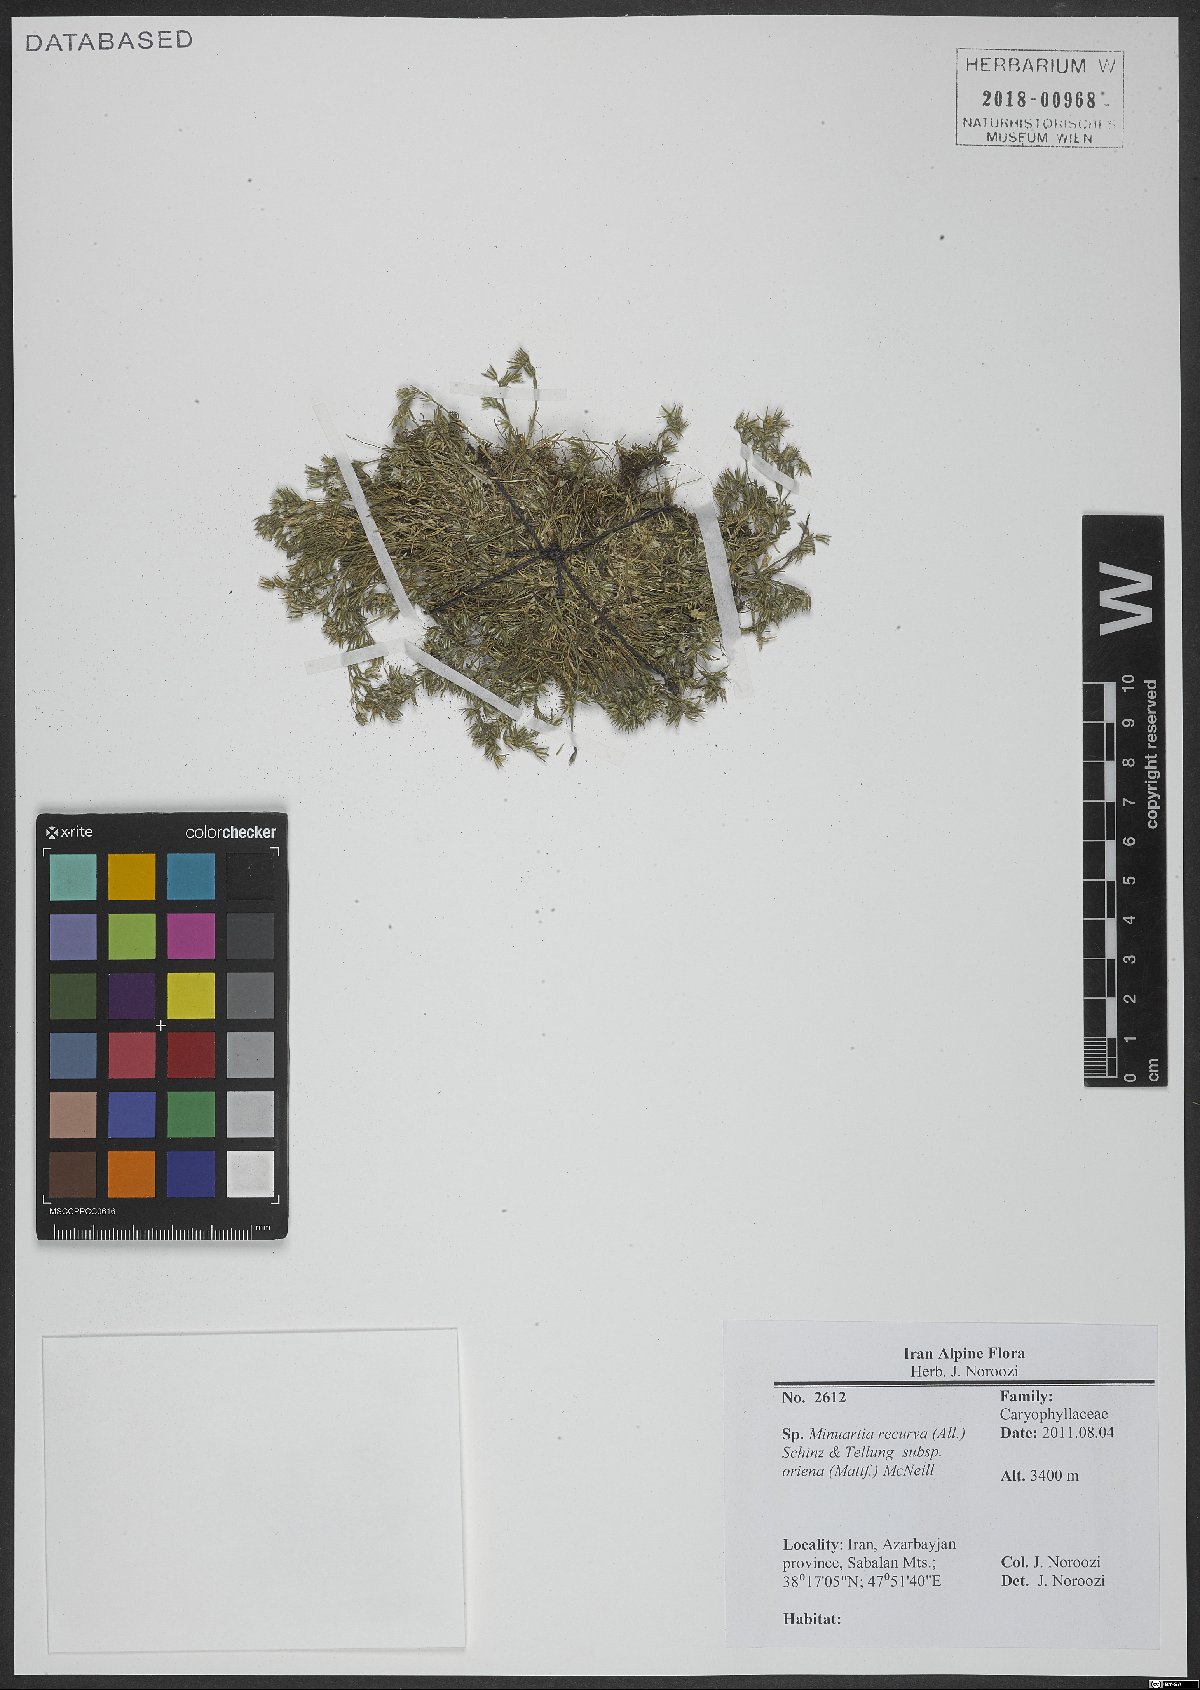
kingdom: Plantae
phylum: Tracheophyta
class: Magnoliopsida
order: Caryophyllales
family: Caryophyllaceae
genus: Minuartia
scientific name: Minuartia hirsuta
